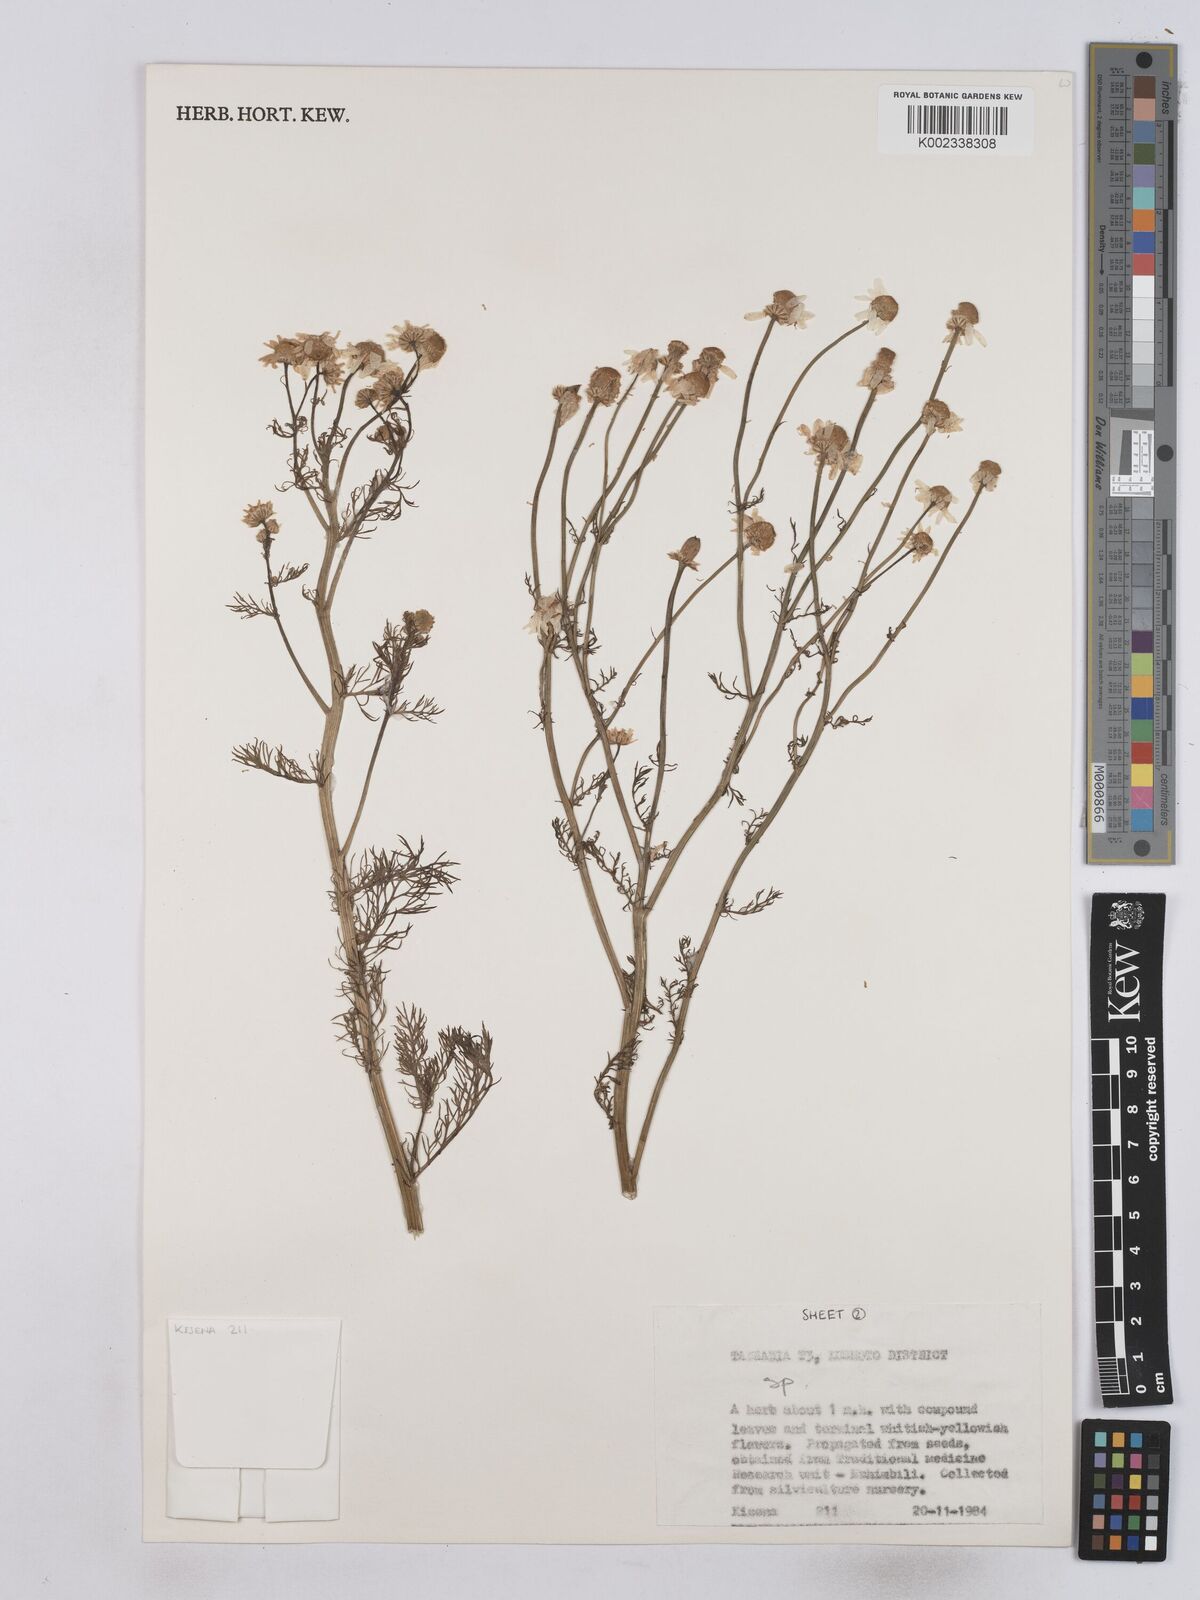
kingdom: Plantae
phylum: Tracheophyta
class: Magnoliopsida
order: Asterales
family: Asteraceae
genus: Matricaria
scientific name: Matricaria chamomilla
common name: Scented mayweed
